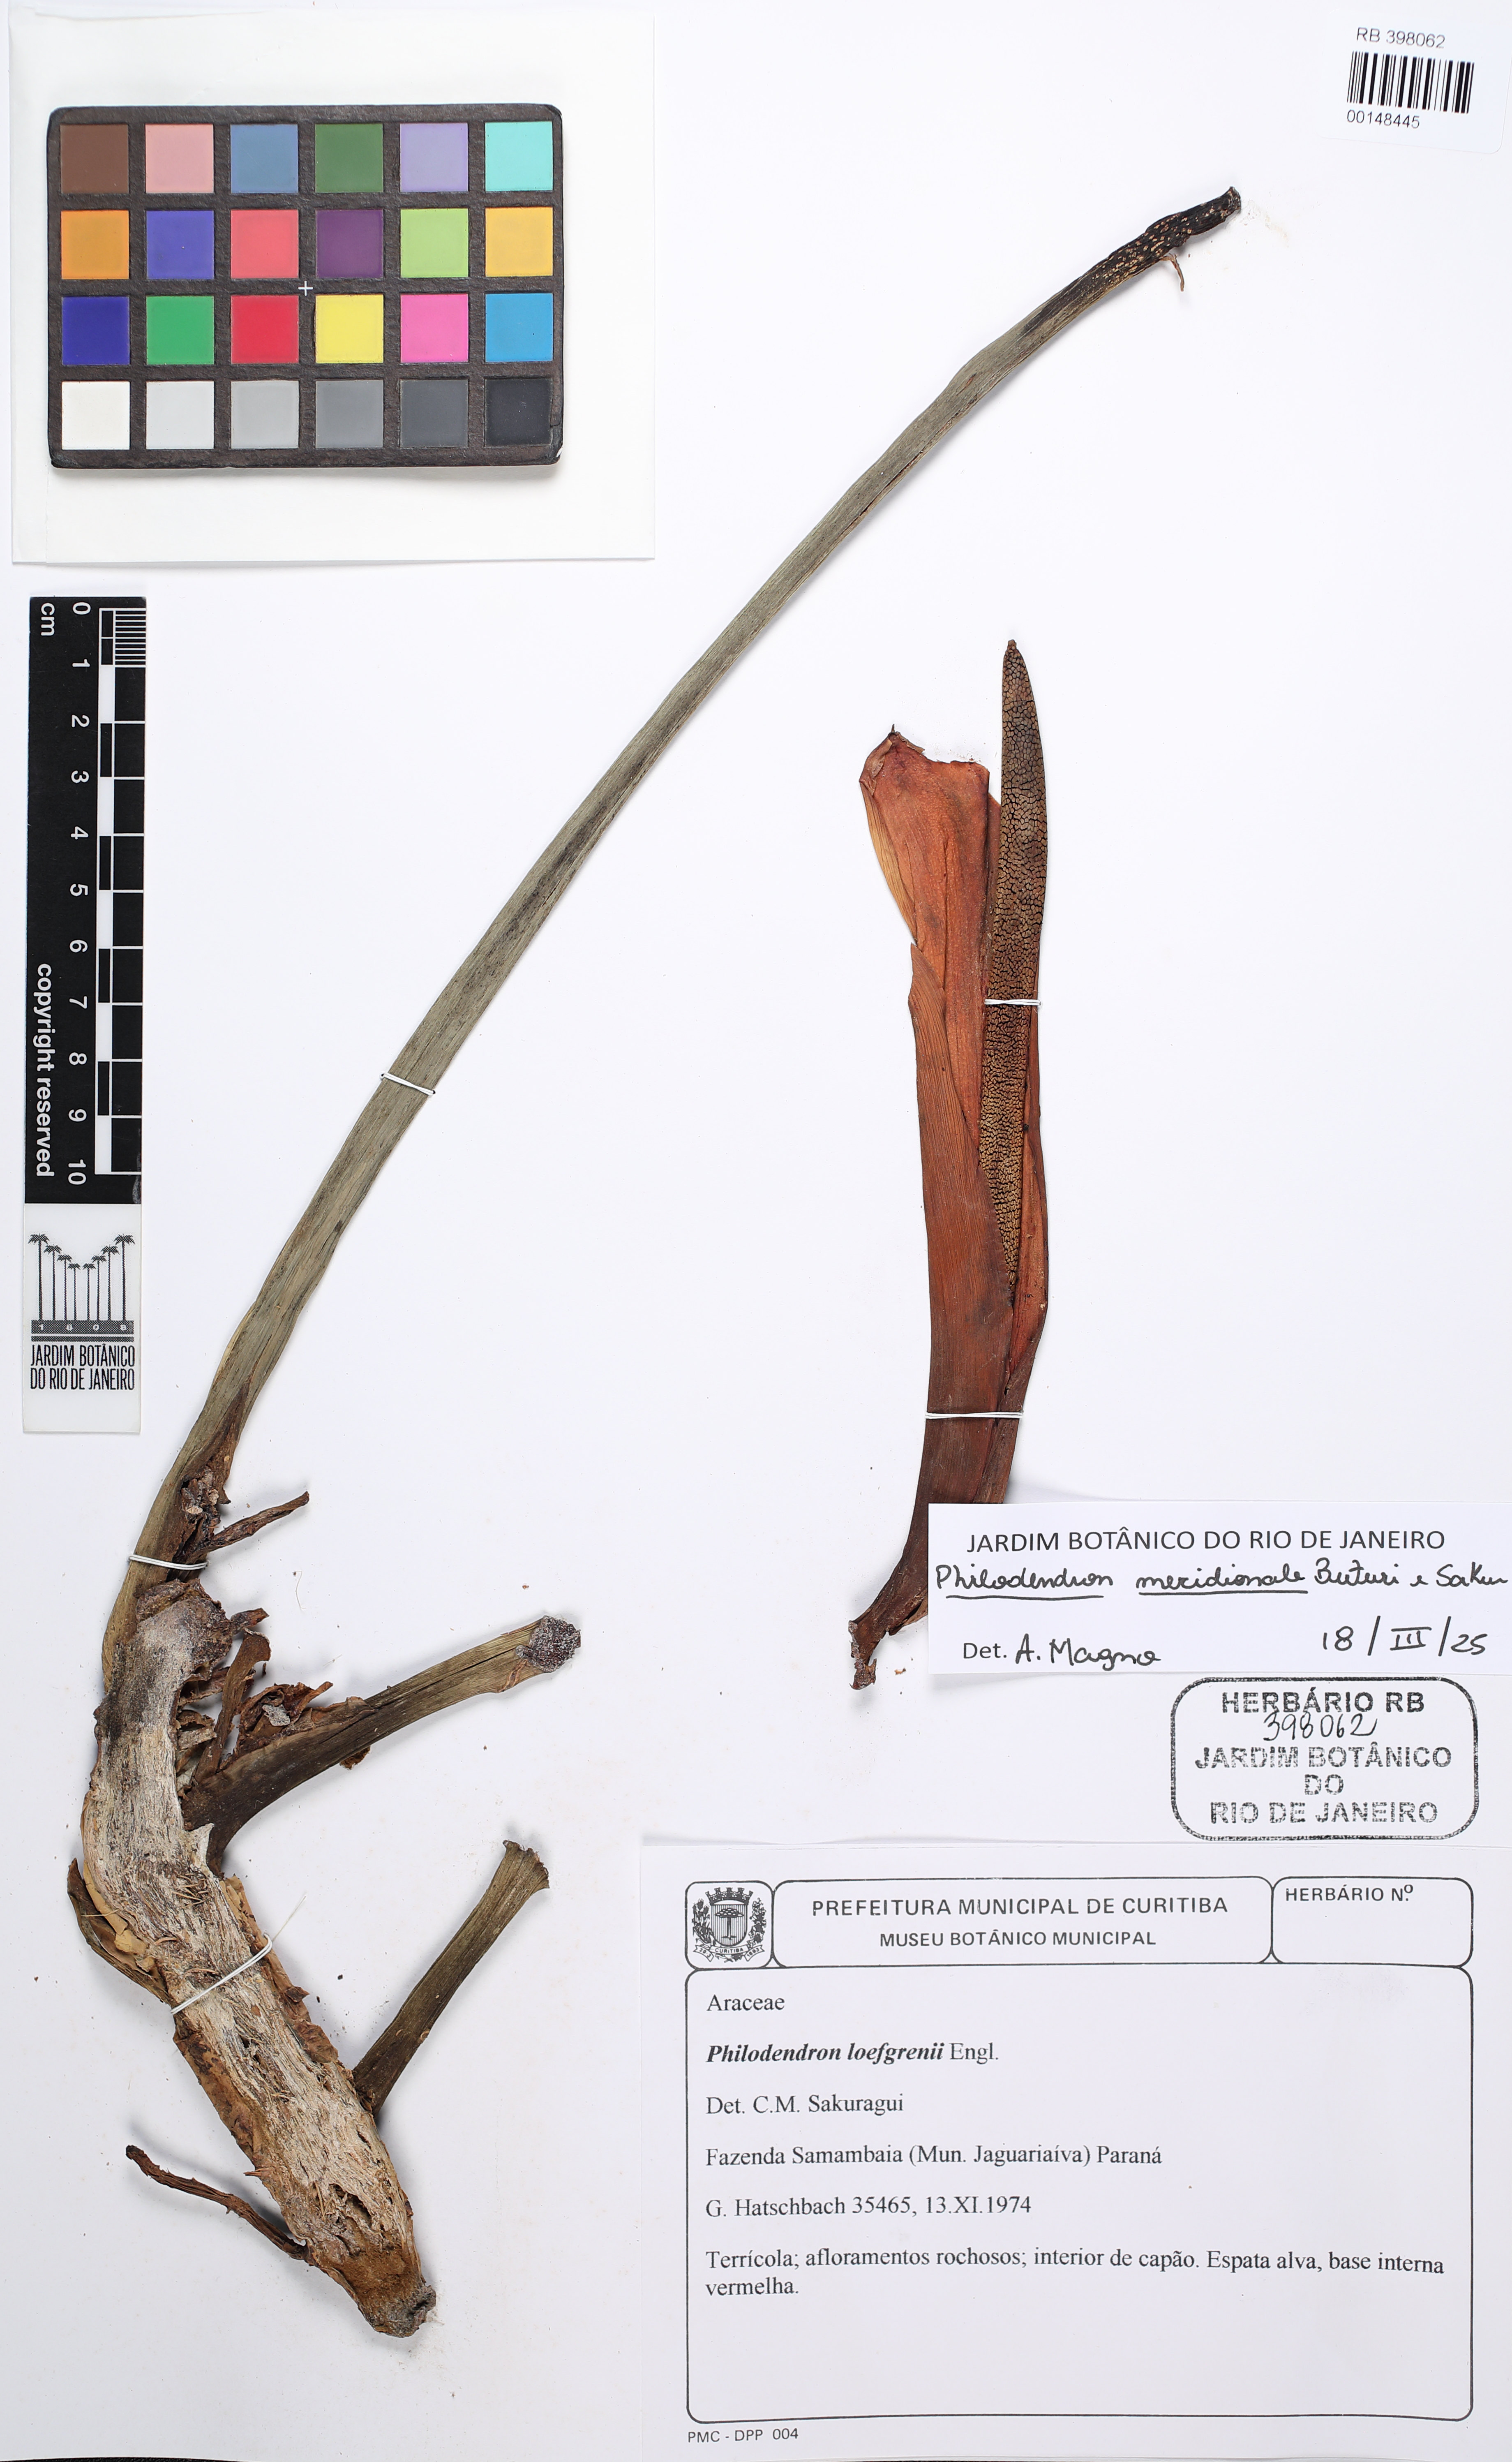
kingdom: Plantae
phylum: Tracheophyta
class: Liliopsida
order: Alismatales
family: Araceae
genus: Philodendron
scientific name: Philodendron loefgrenii
